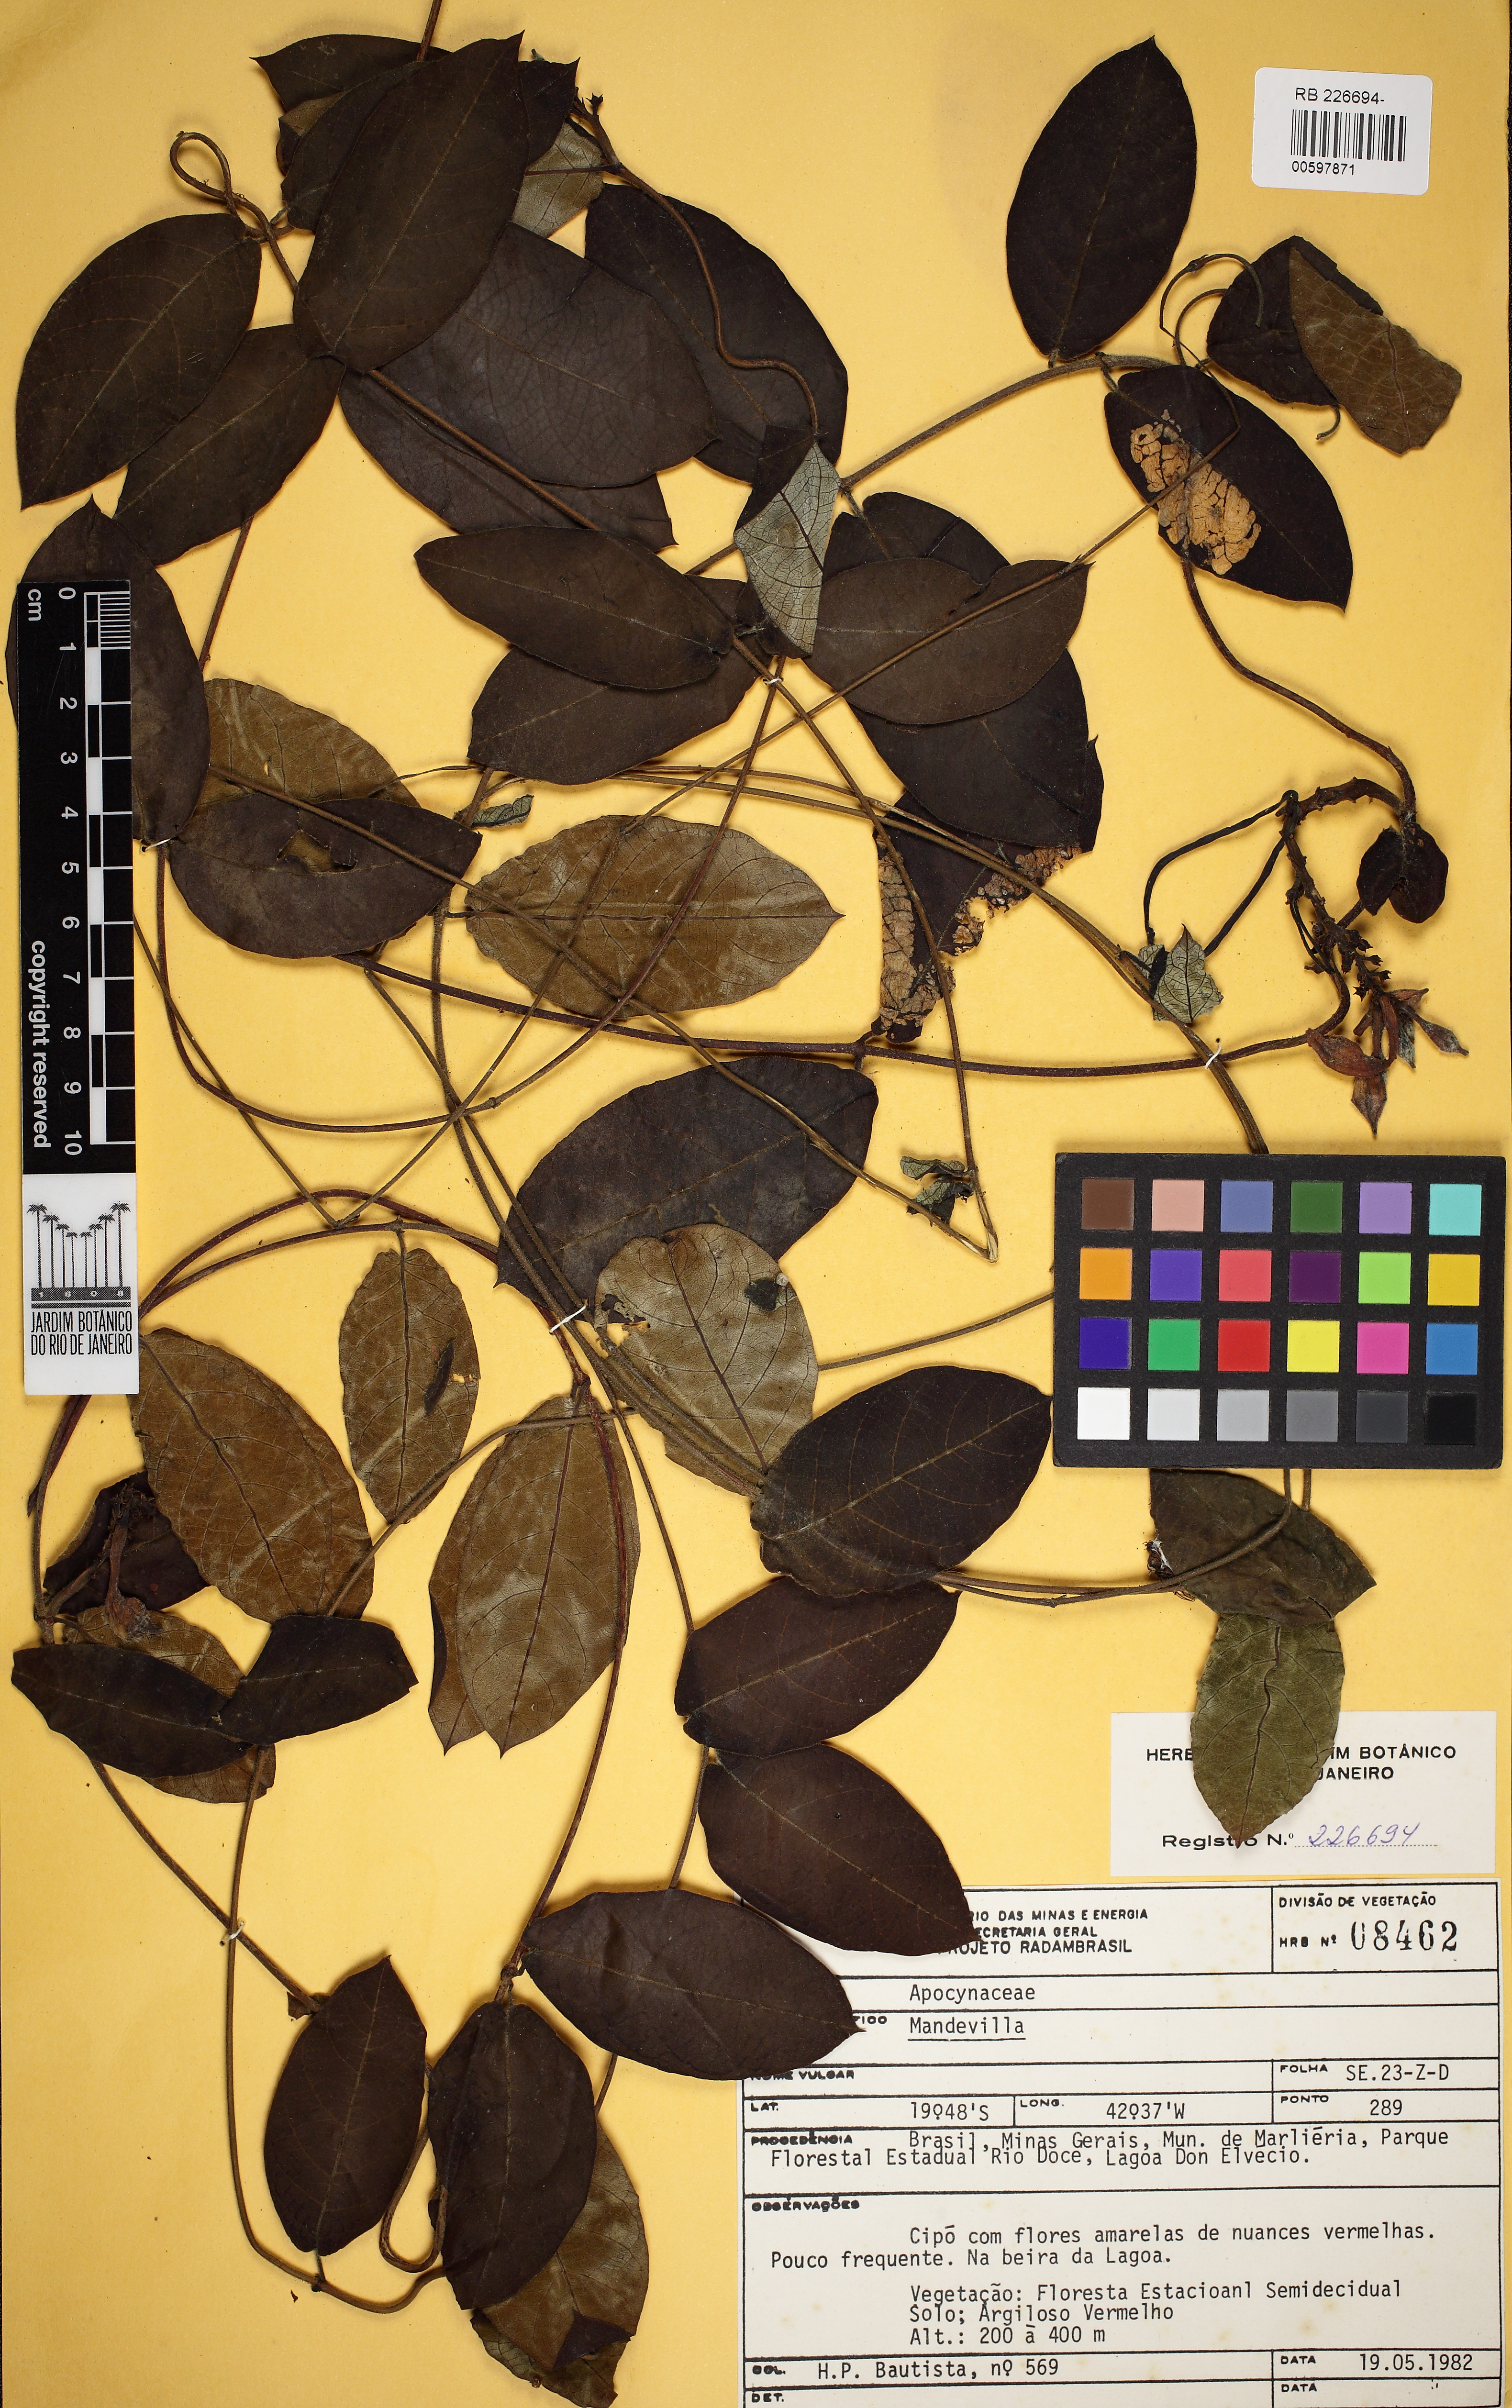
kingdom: Plantae
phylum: Tracheophyta
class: Magnoliopsida
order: Gentianales
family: Apocynaceae
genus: Mandevilla
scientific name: Mandevilla
